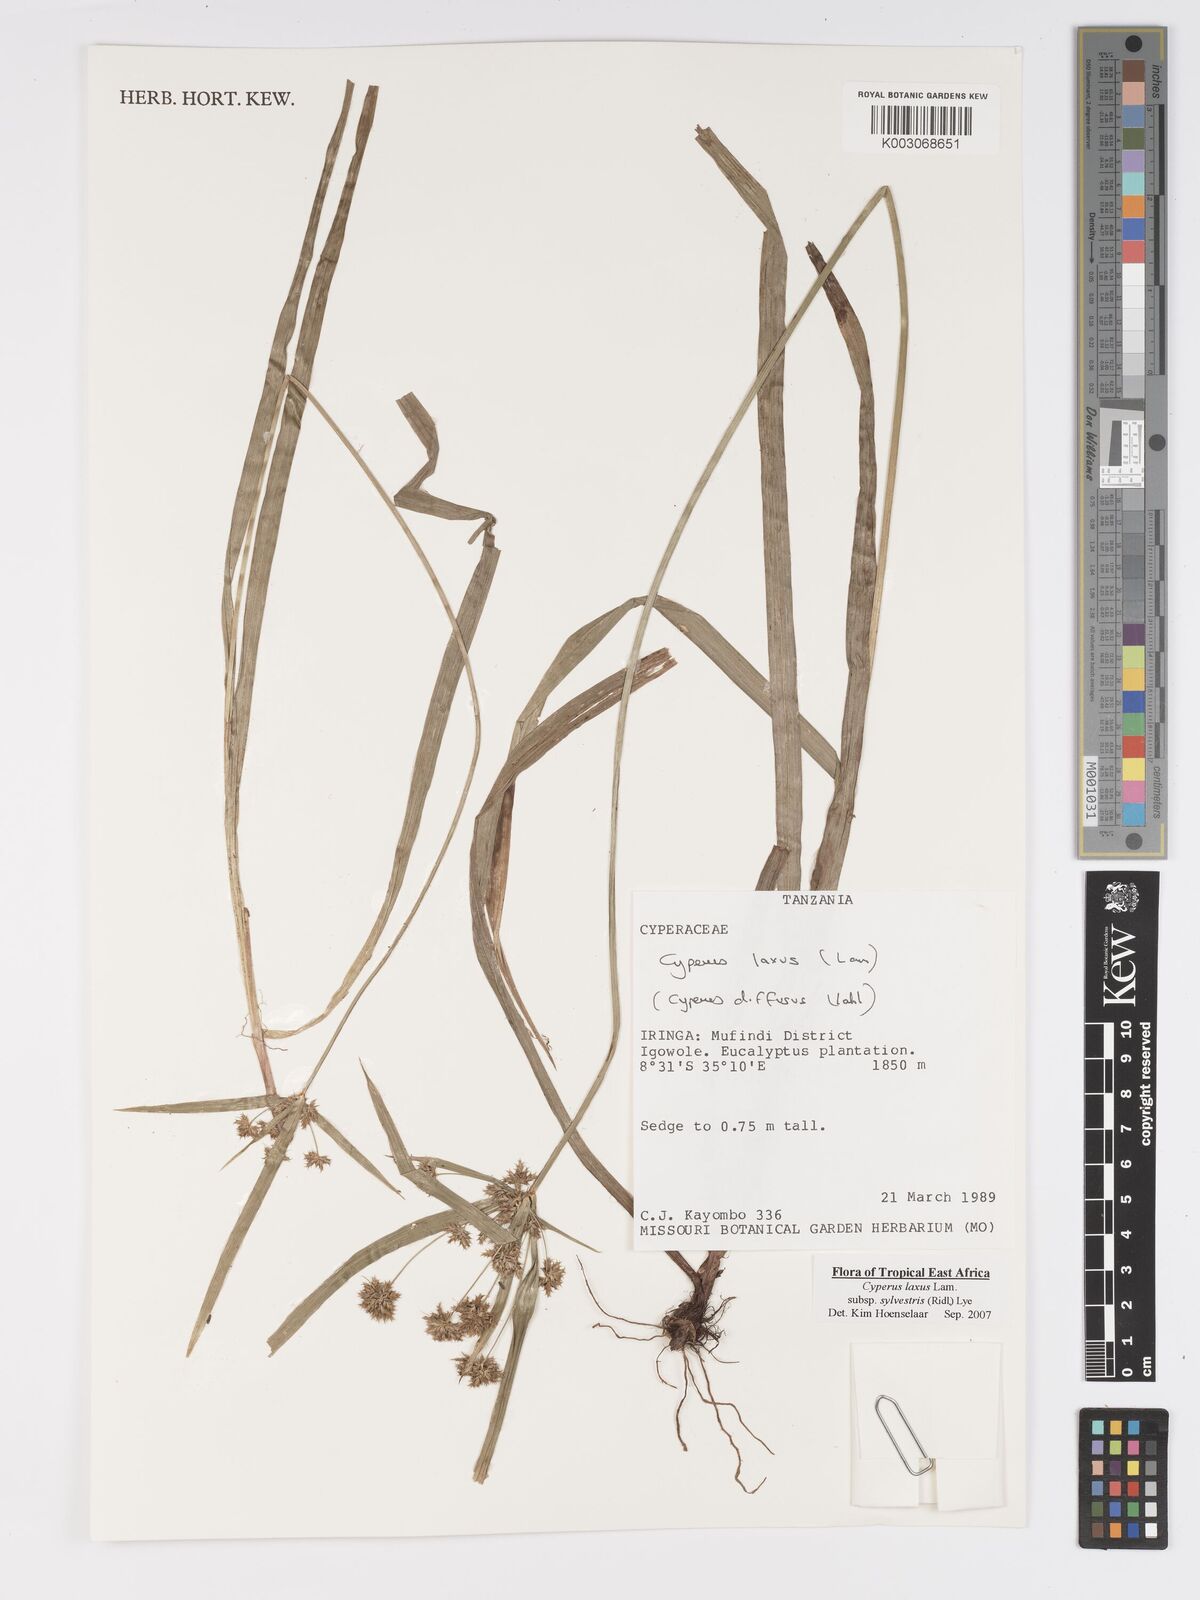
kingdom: Plantae
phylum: Tracheophyta
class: Liliopsida
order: Poales
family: Cyperaceae
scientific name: Cyperaceae
